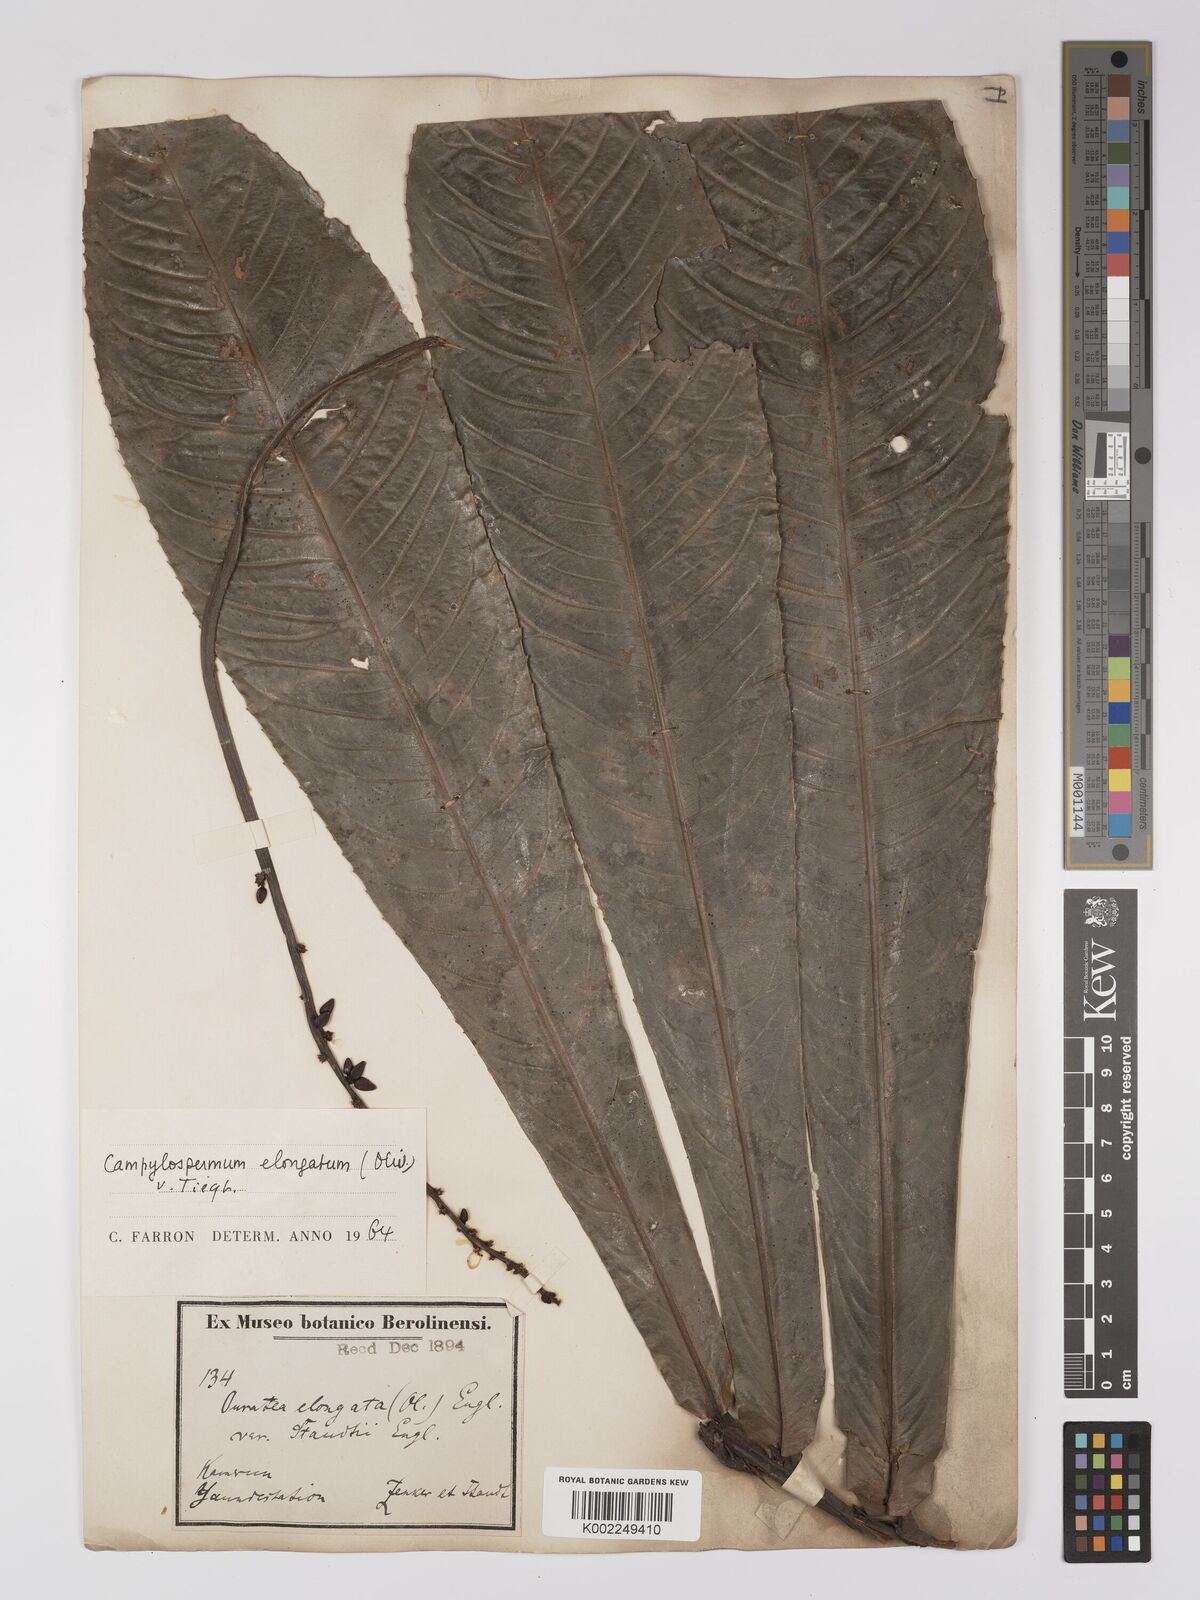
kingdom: Plantae
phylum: Tracheophyta
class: Magnoliopsida
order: Malpighiales
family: Ochnaceae
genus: Gomphia
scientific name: Gomphia elongata
